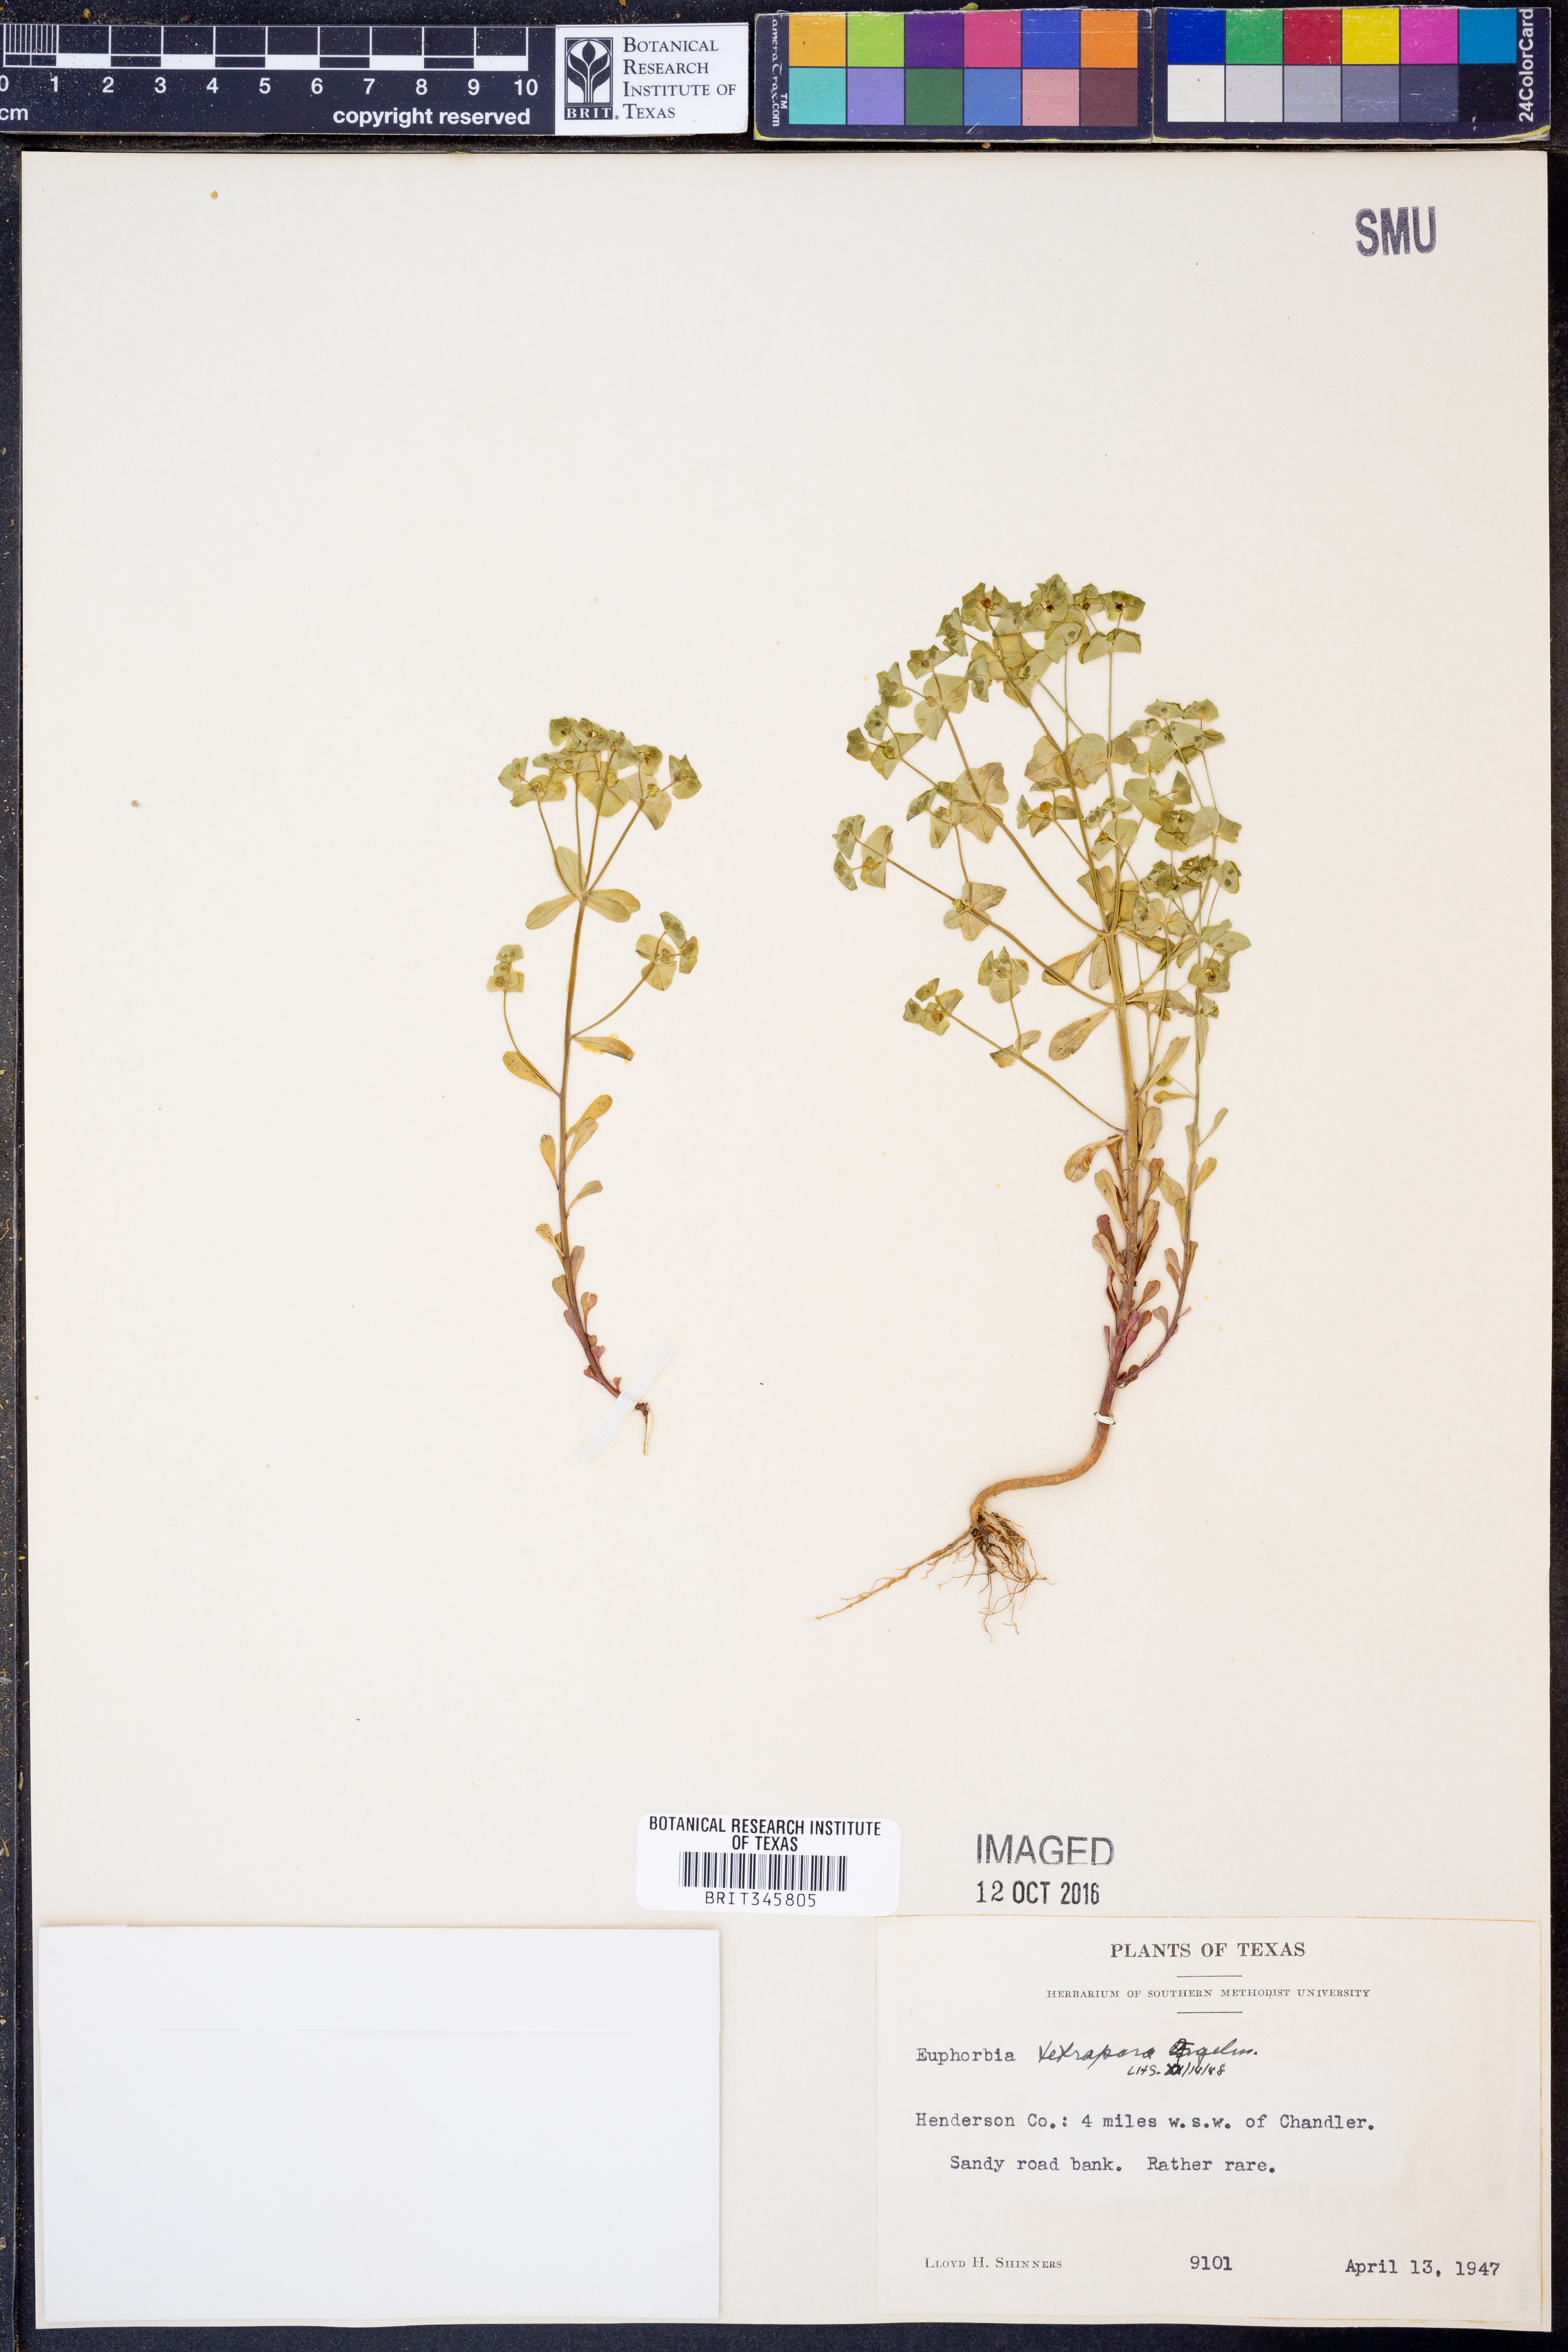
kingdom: Plantae
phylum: Tracheophyta
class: Magnoliopsida
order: Malpighiales
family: Euphorbiaceae
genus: Euphorbia
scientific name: Euphorbia tetrapora
